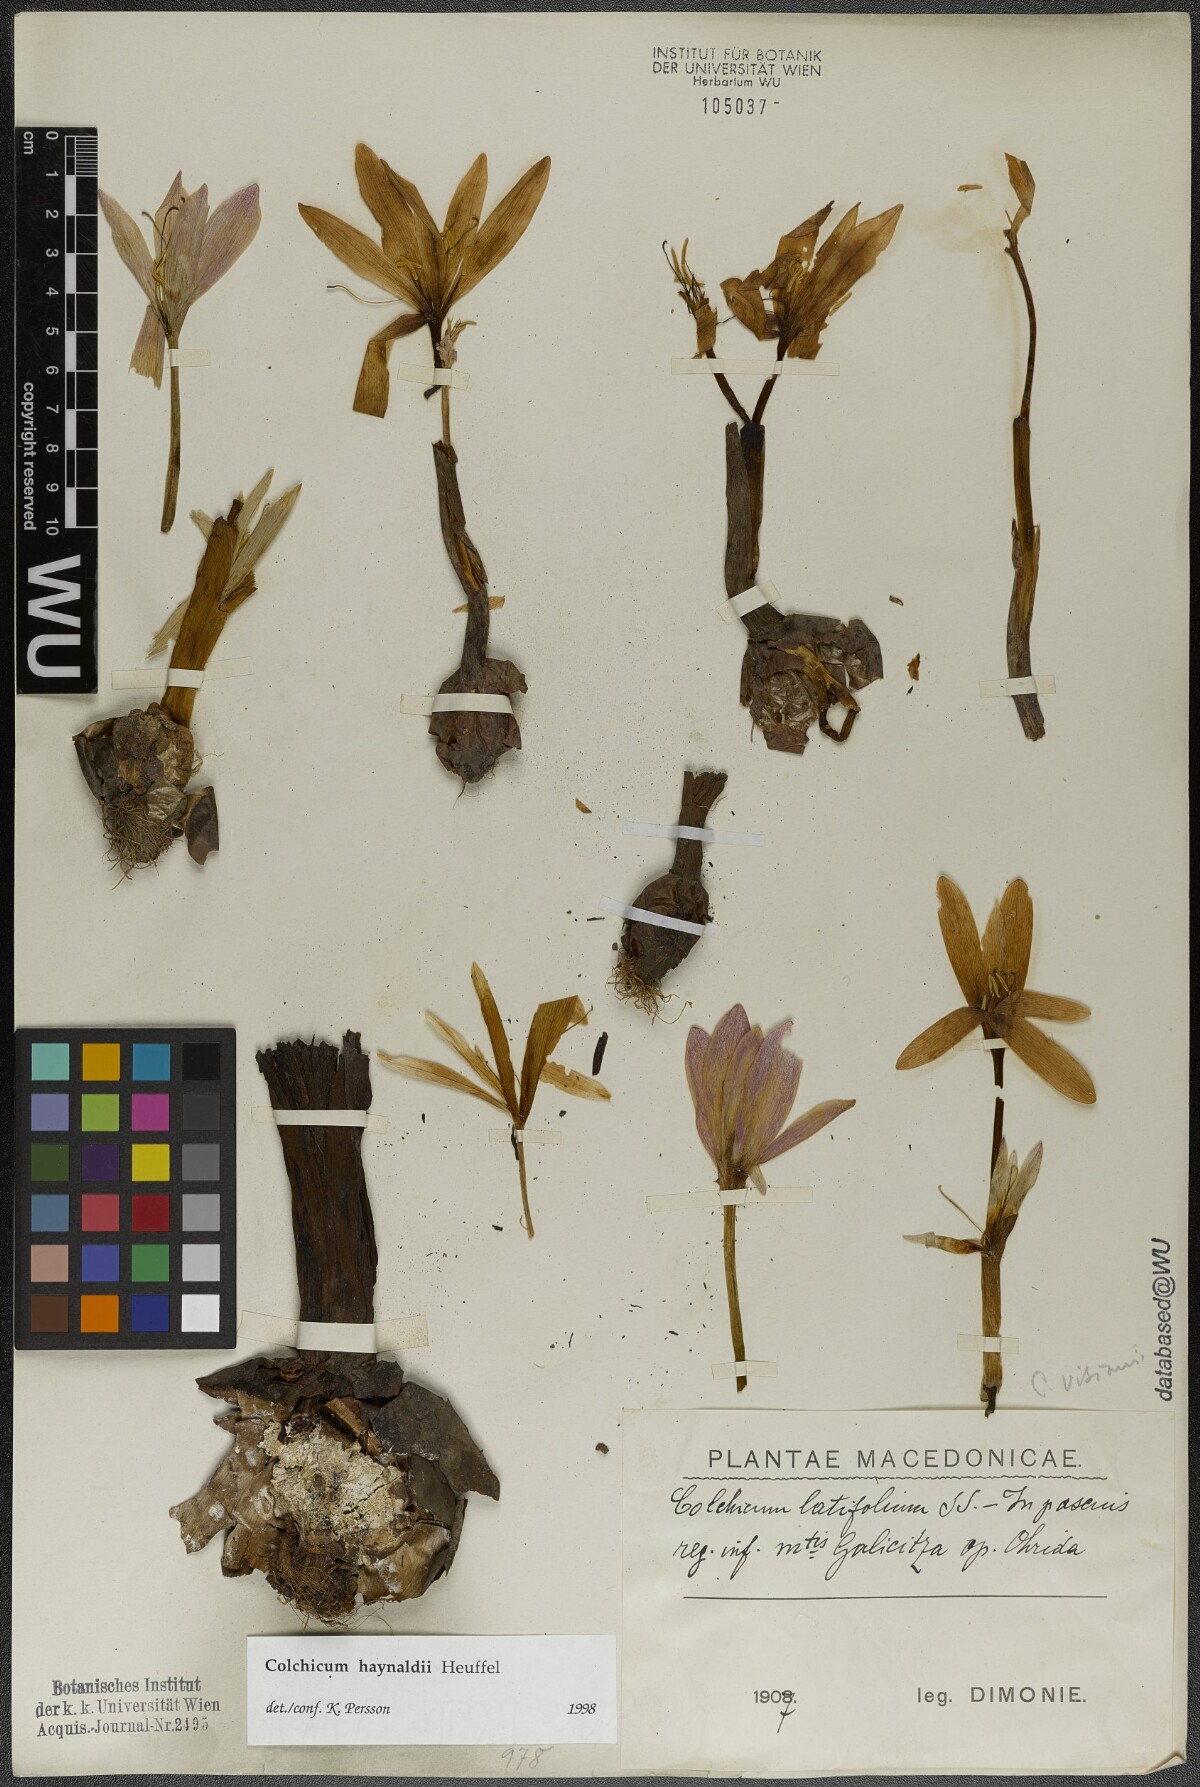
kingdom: Plantae
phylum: Tracheophyta
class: Liliopsida
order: Liliales
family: Colchicaceae
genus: Colchicum
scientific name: Colchicum haynaldii
